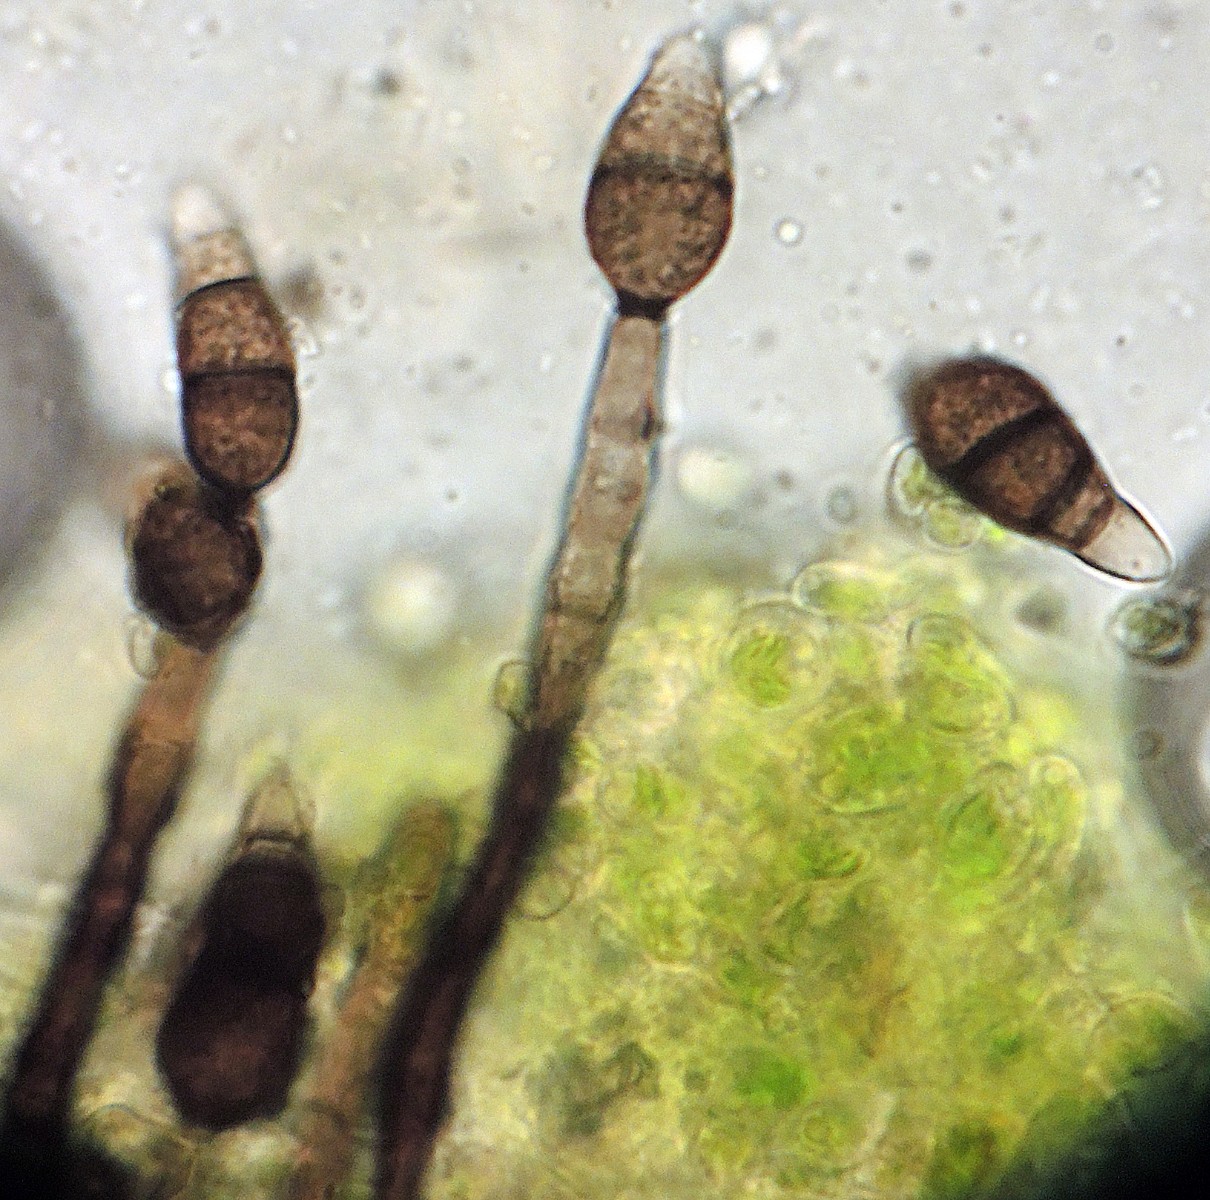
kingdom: Fungi
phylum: Ascomycota
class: Dothideomycetes
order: Pleosporales
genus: Sporidesmium
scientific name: Sporidesmium cookei
